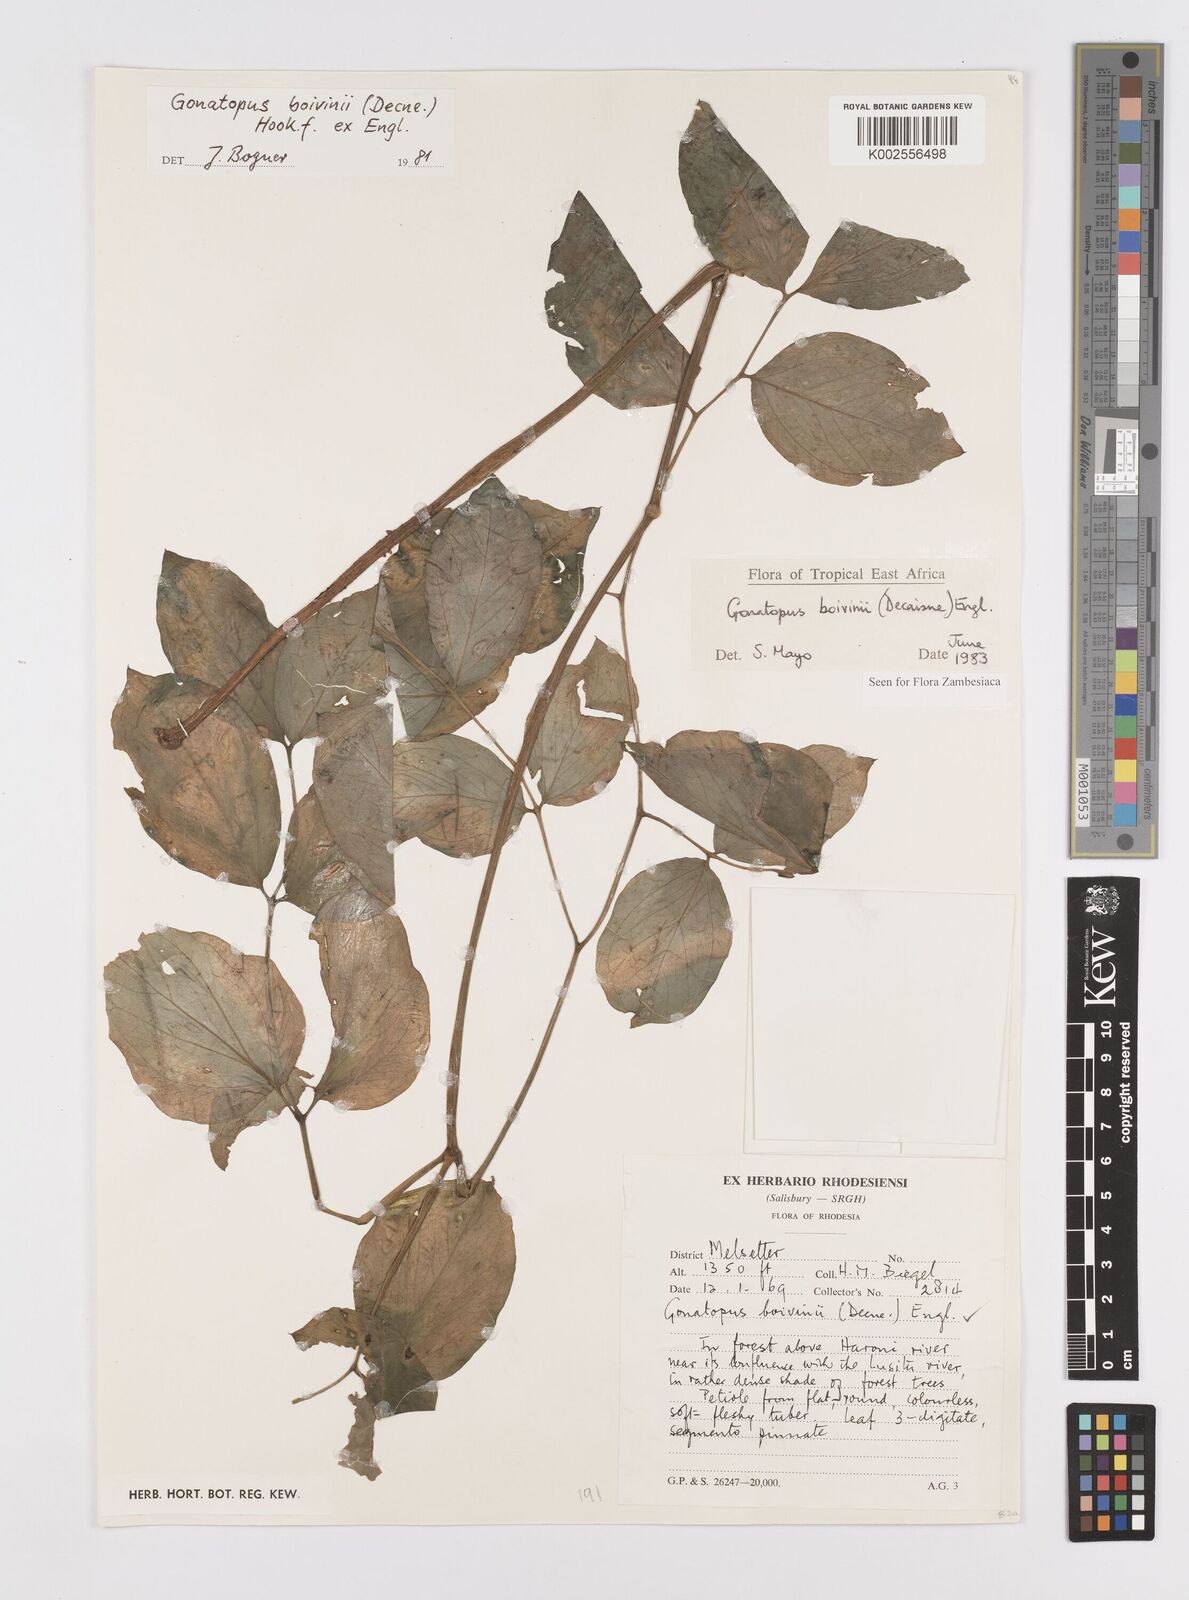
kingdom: Plantae
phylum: Tracheophyta
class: Liliopsida
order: Alismatales
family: Araceae
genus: Gonatopus
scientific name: Gonatopus boivinii
